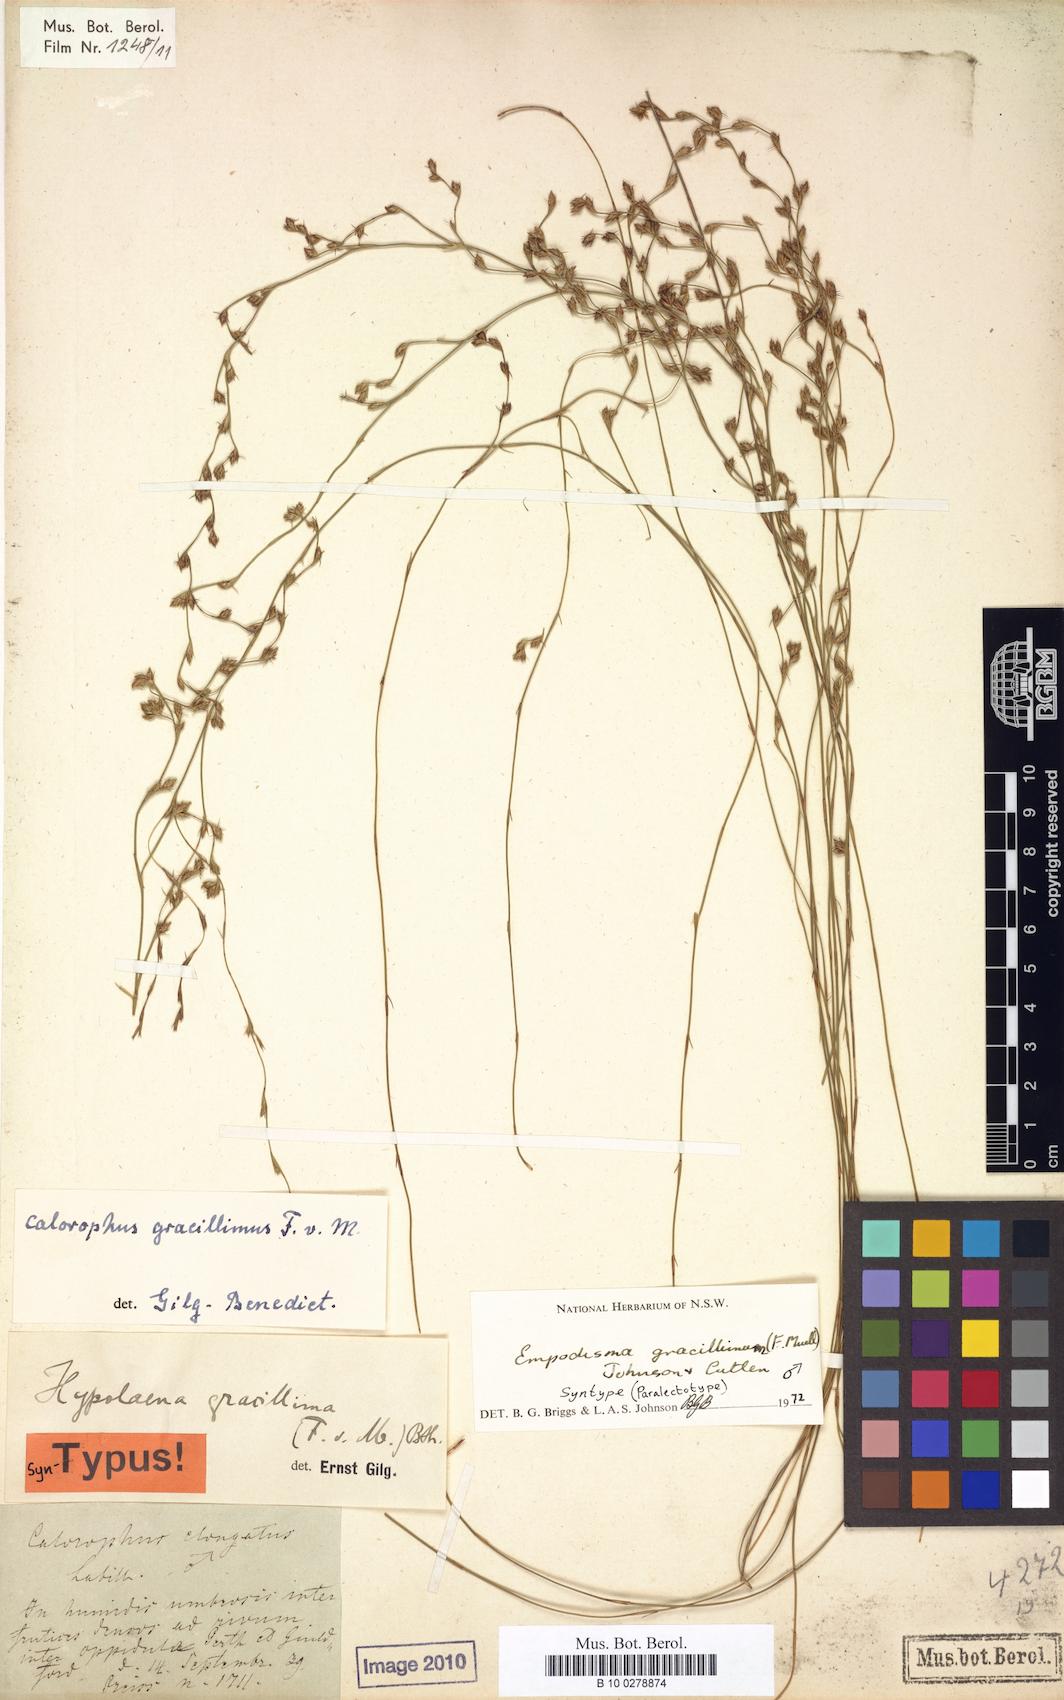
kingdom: Plantae
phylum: Tracheophyta
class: Liliopsida
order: Poales
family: Restionaceae
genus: Empodisma
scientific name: Empodisma gracillimum
